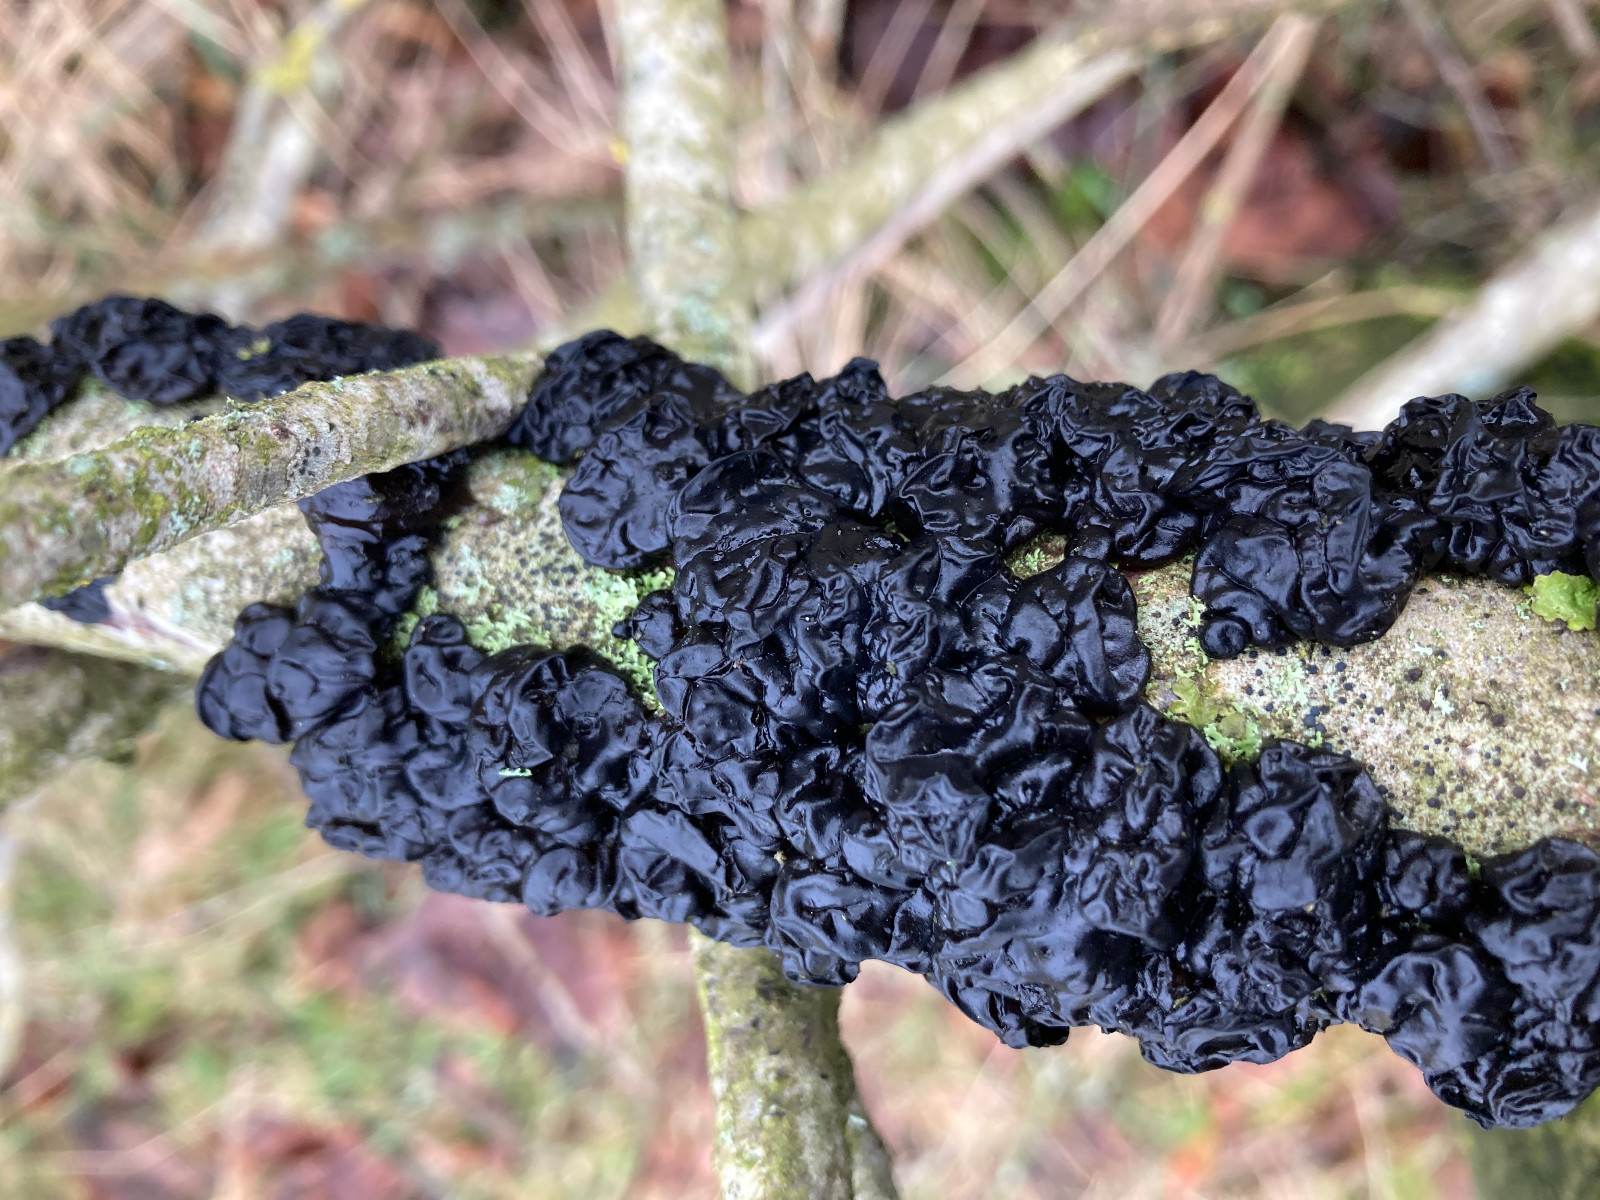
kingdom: Fungi
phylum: Basidiomycota
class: Agaricomycetes
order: Auriculariales
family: Auriculariaceae
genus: Exidia
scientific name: Exidia nigricans
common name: almindelig bævretop
